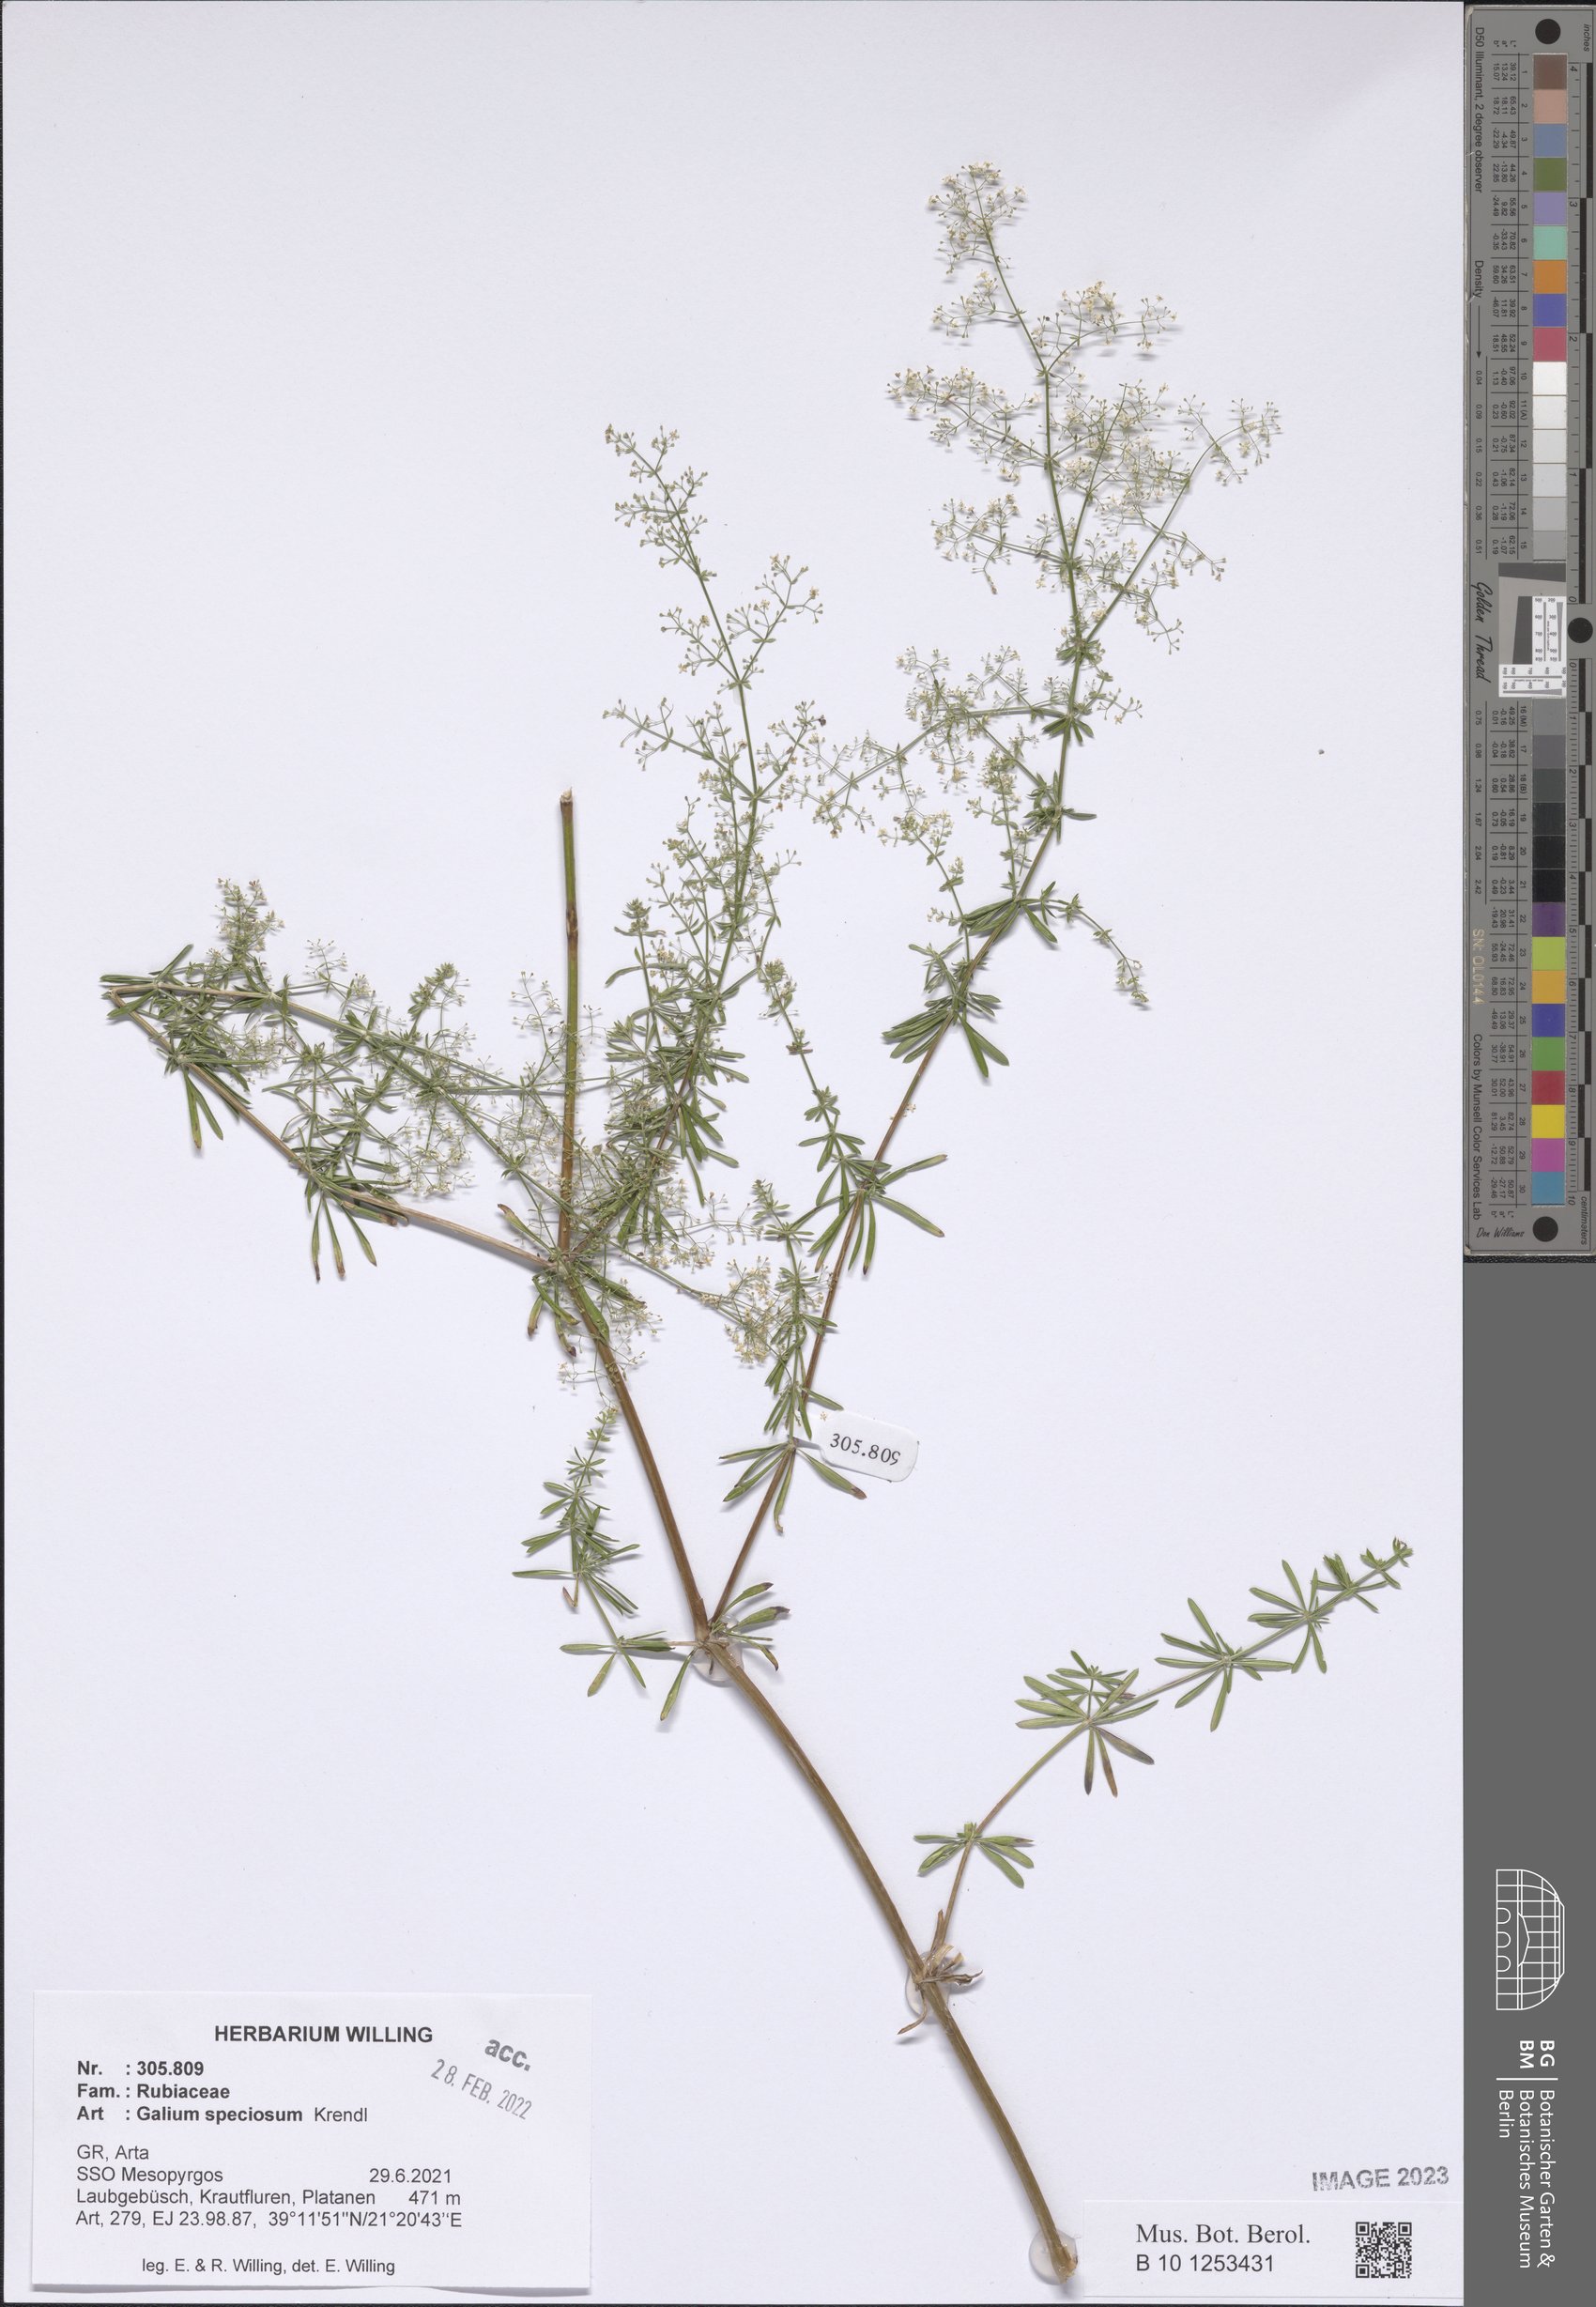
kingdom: Plantae
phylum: Tracheophyta
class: Magnoliopsida
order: Gentianales
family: Rubiaceae
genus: Galium
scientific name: Galium speciosum
